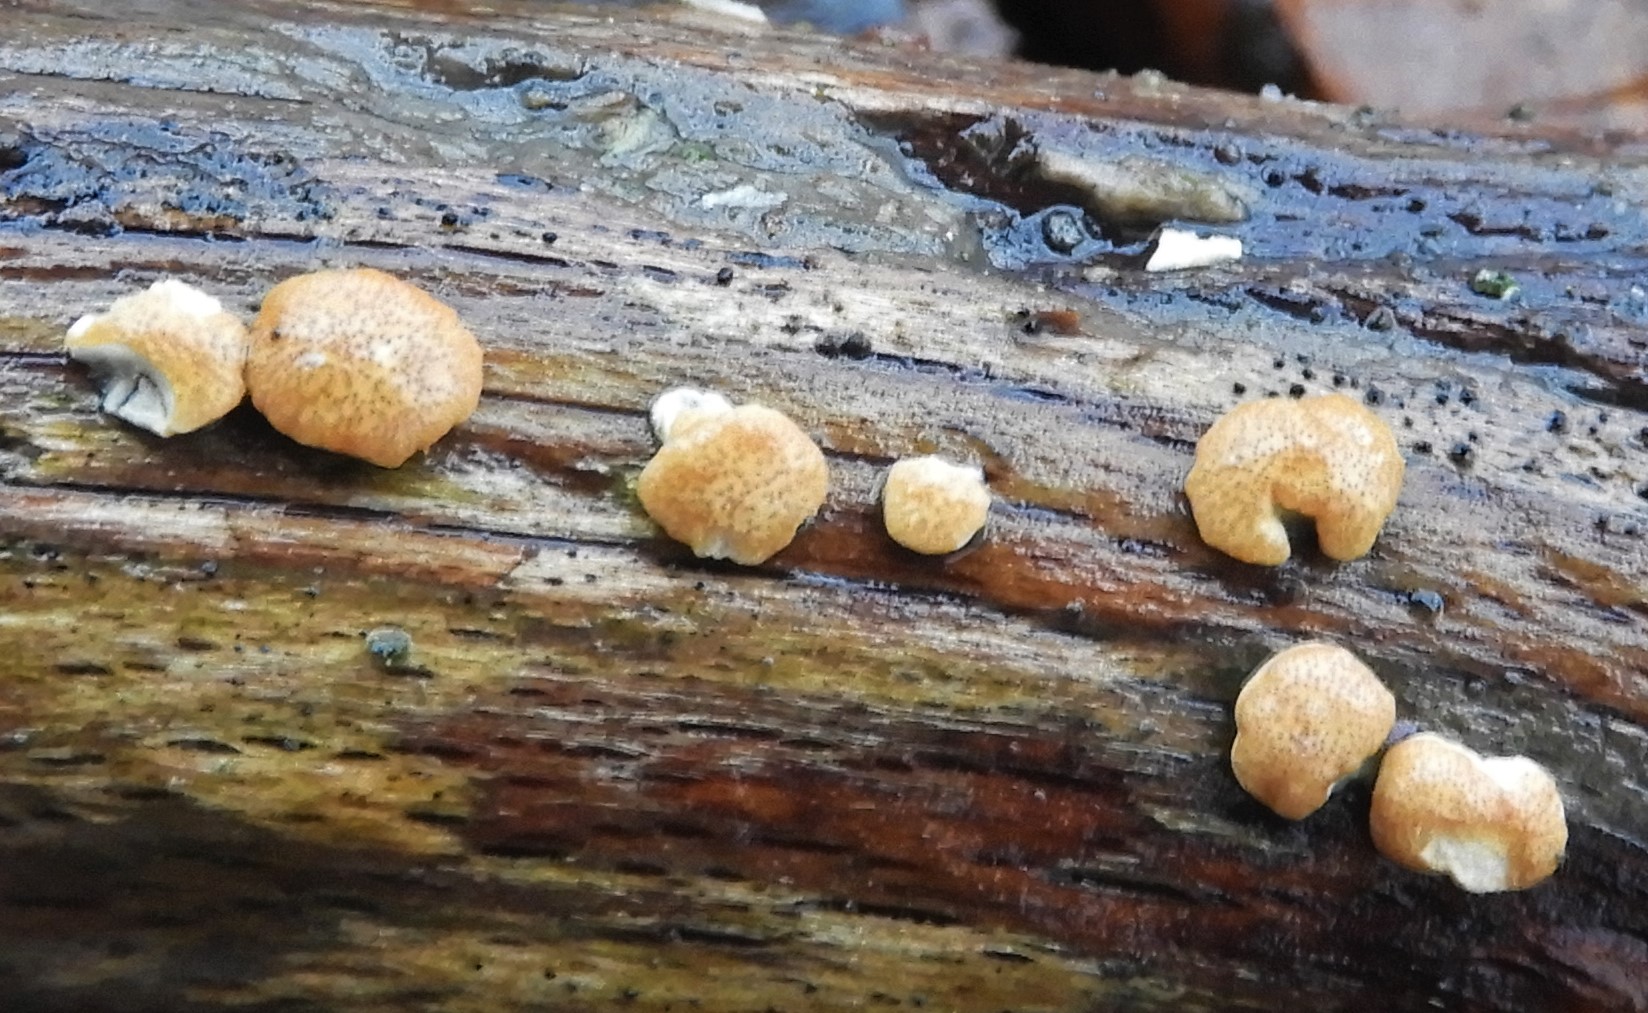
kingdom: Fungi
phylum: Ascomycota
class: Sordariomycetes
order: Hypocreales
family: Hypocreaceae
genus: Trichoderma
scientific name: Trichoderma europaeum
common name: rosabrun kødkerne
